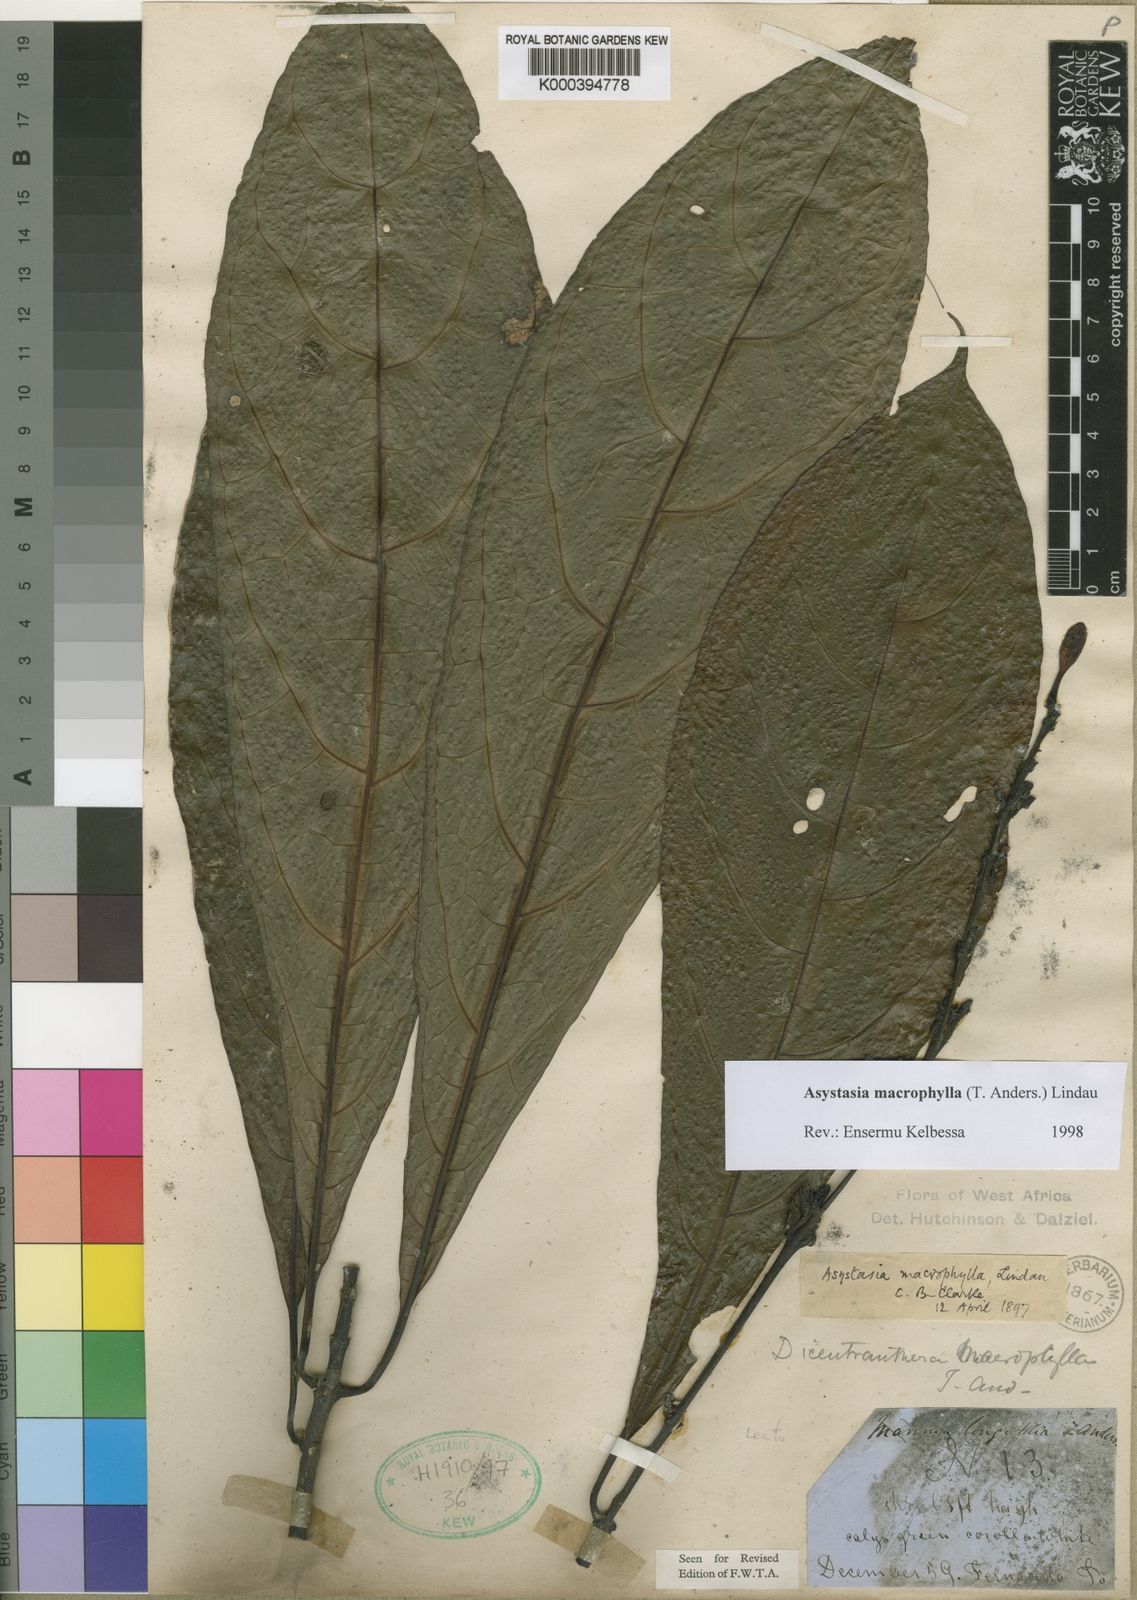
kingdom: Plantae
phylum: Tracheophyta
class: Magnoliopsida
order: Lamiales
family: Acanthaceae
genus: Asystasia
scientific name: Asystasia macrophylla
